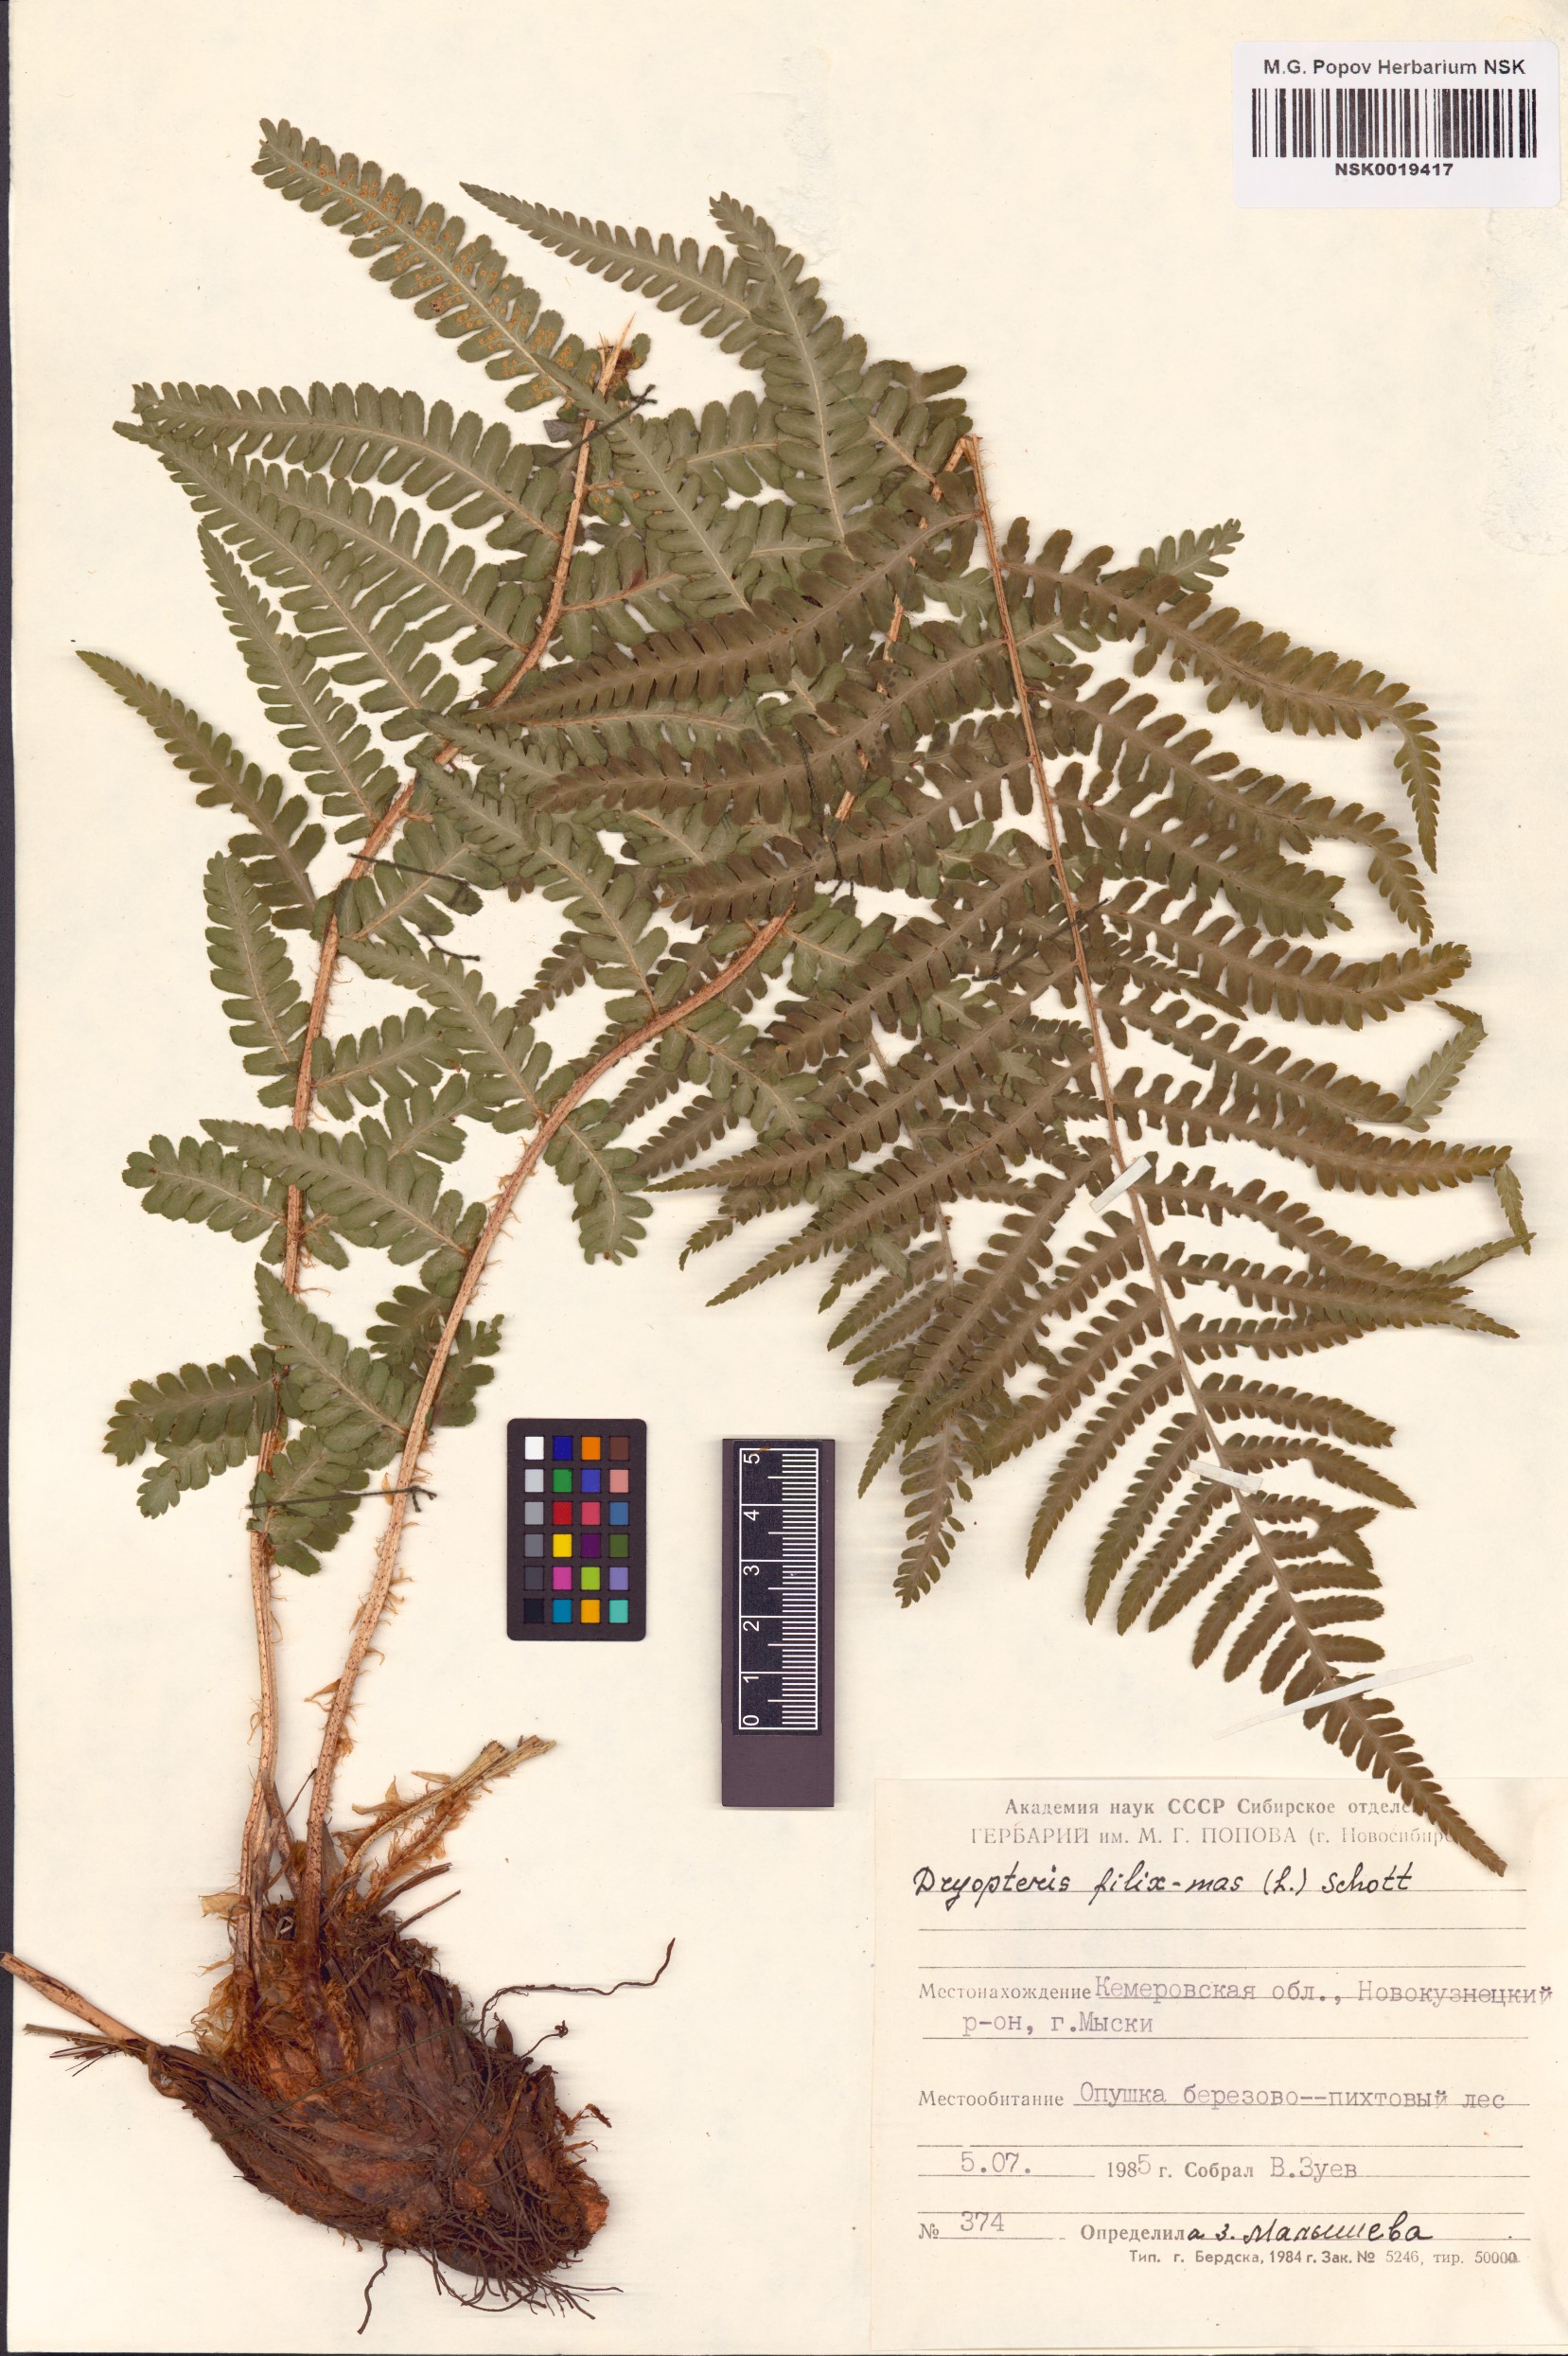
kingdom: Plantae
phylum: Tracheophyta
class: Polypodiopsida
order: Polypodiales
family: Dryopteridaceae
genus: Dryopteris
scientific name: Dryopteris filix-mas
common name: Male fern
